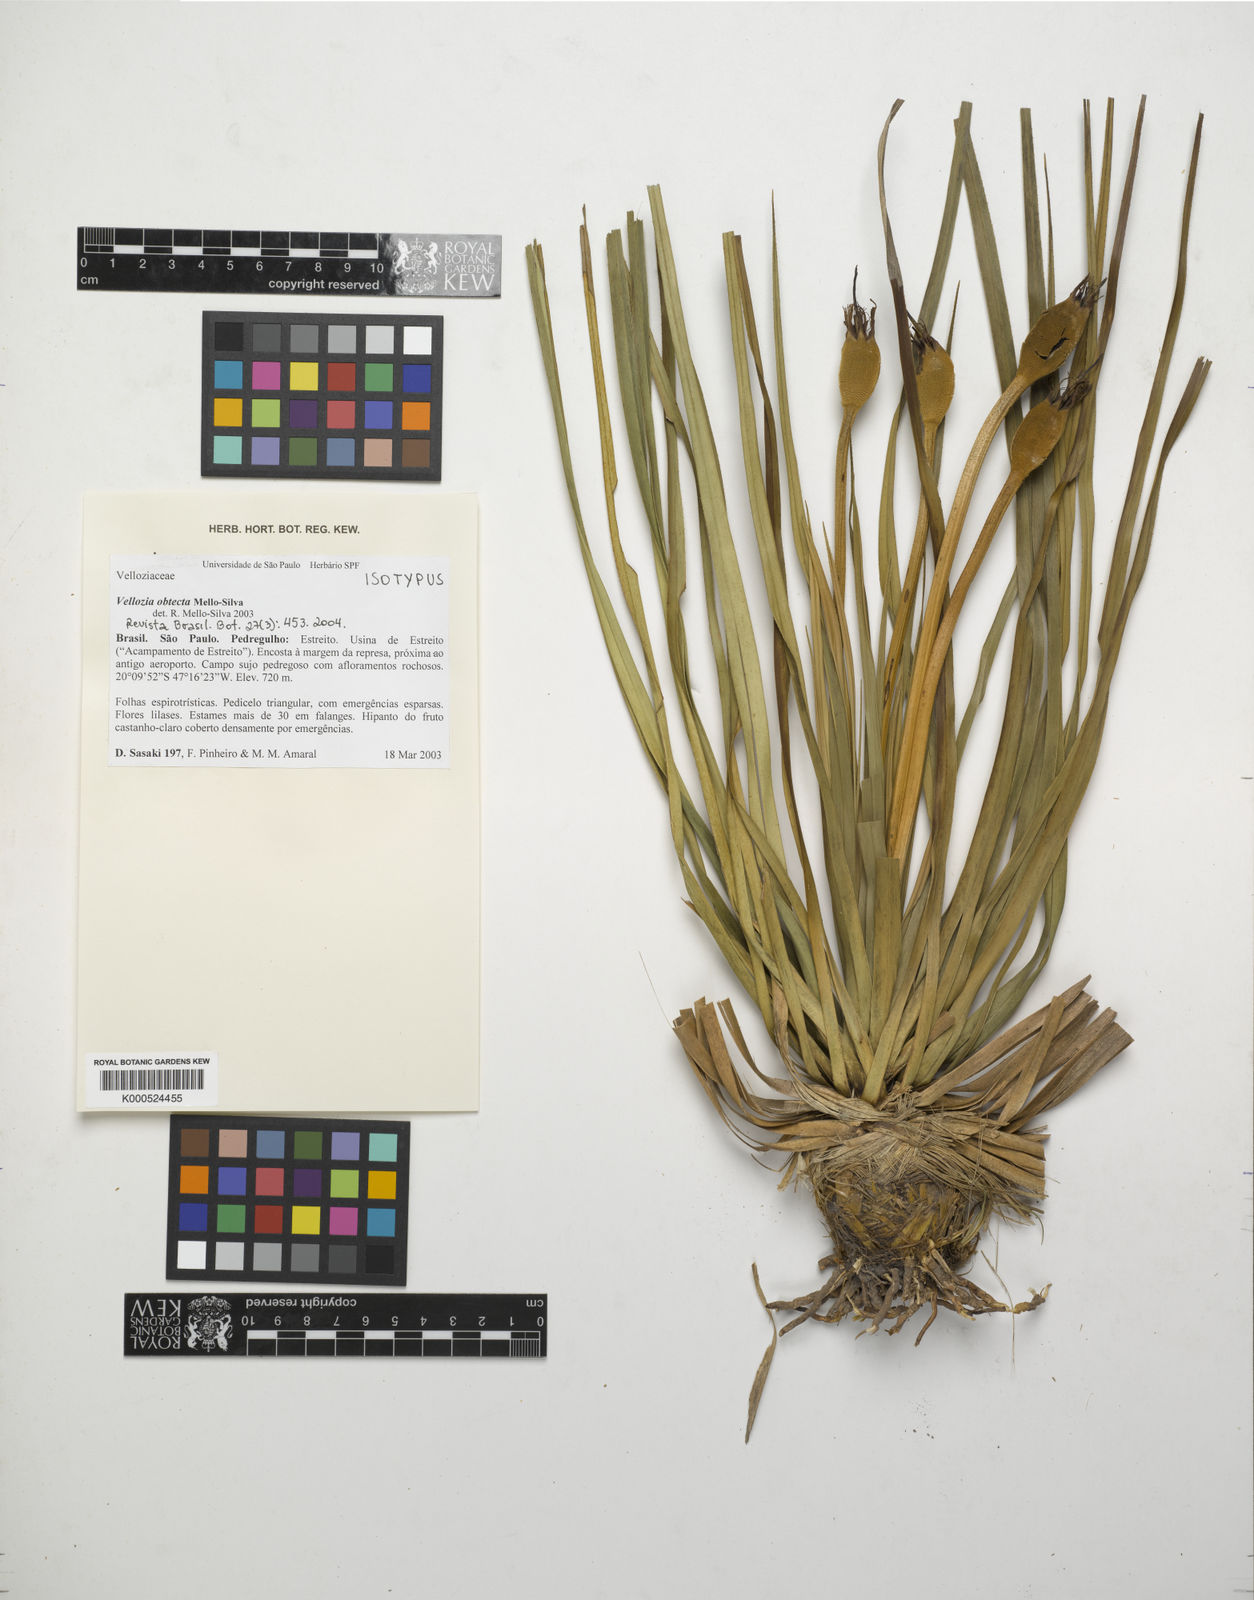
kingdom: Plantae
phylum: Tracheophyta
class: Liliopsida
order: Pandanales
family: Velloziaceae
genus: Vellozia
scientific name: Vellozia obtecta
